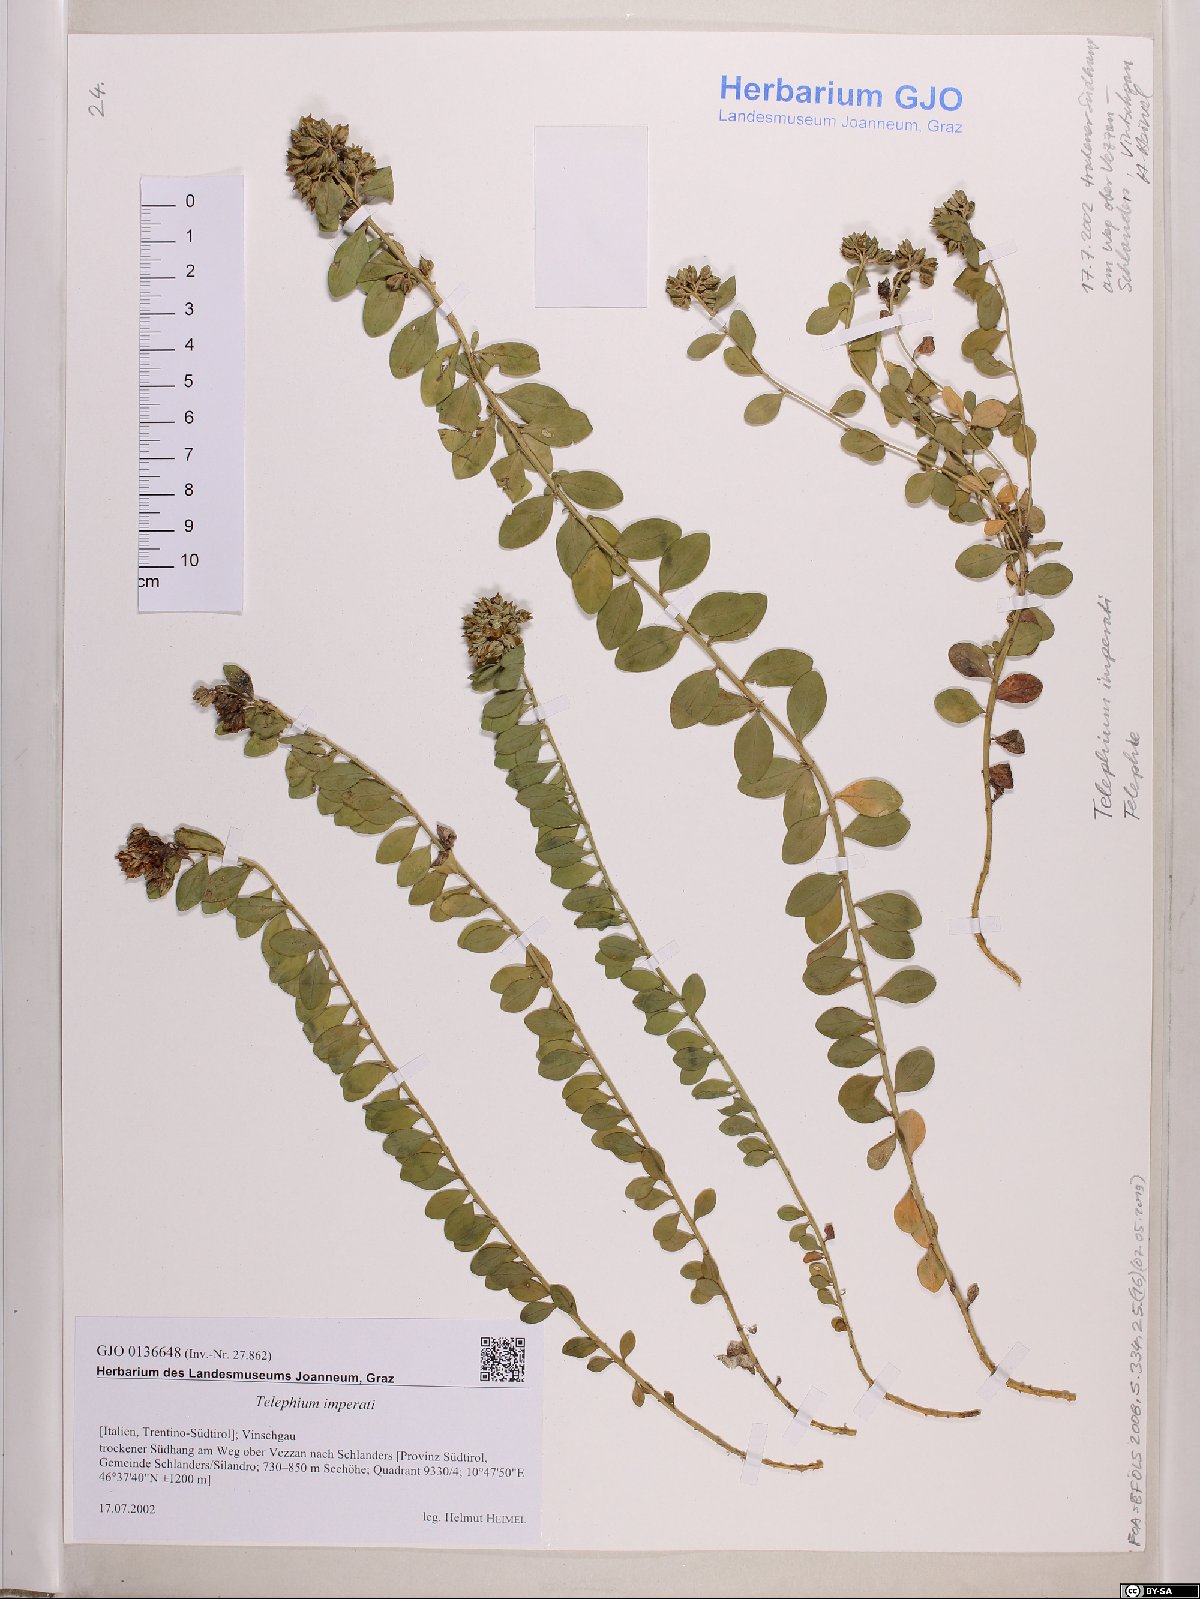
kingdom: Plantae
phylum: Tracheophyta
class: Magnoliopsida
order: Caryophyllales
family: Caryophyllaceae
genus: Telephium
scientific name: Telephium imperati
